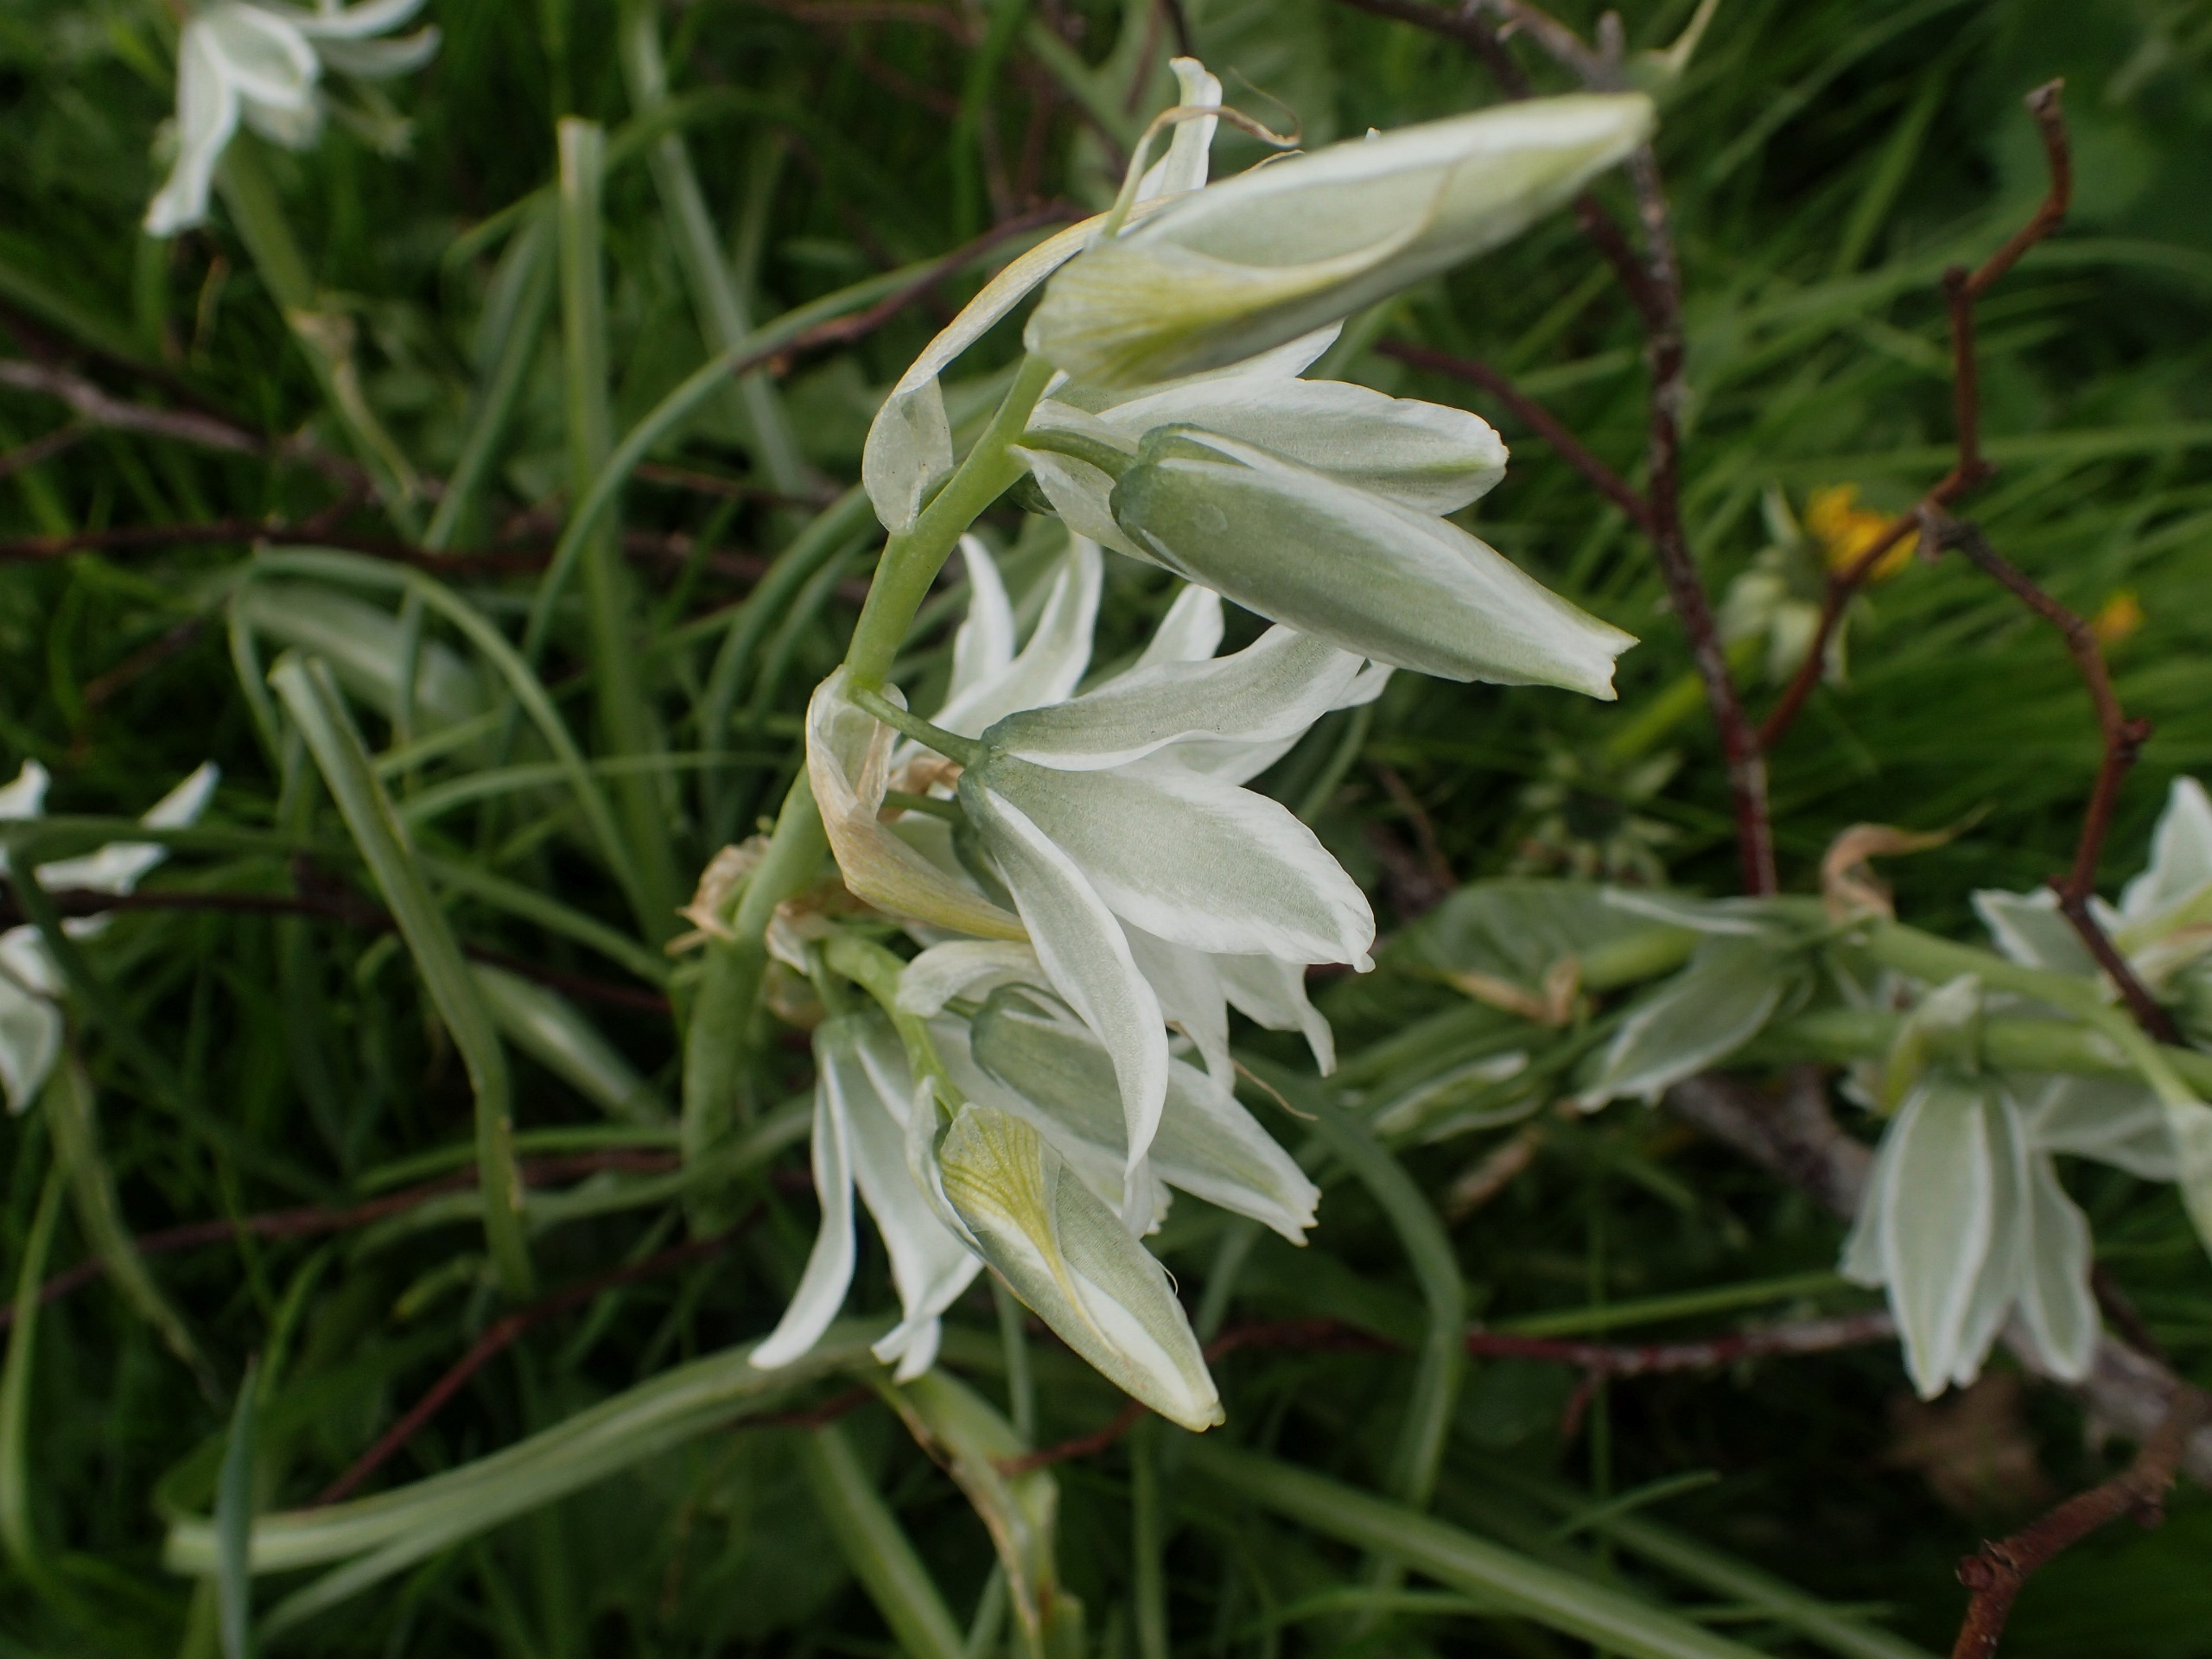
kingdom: Plantae
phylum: Tracheophyta
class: Liliopsida
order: Asparagales
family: Asparagaceae
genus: Ornithogalum
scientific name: Ornithogalum nutans
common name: Nikkende fuglemælk
